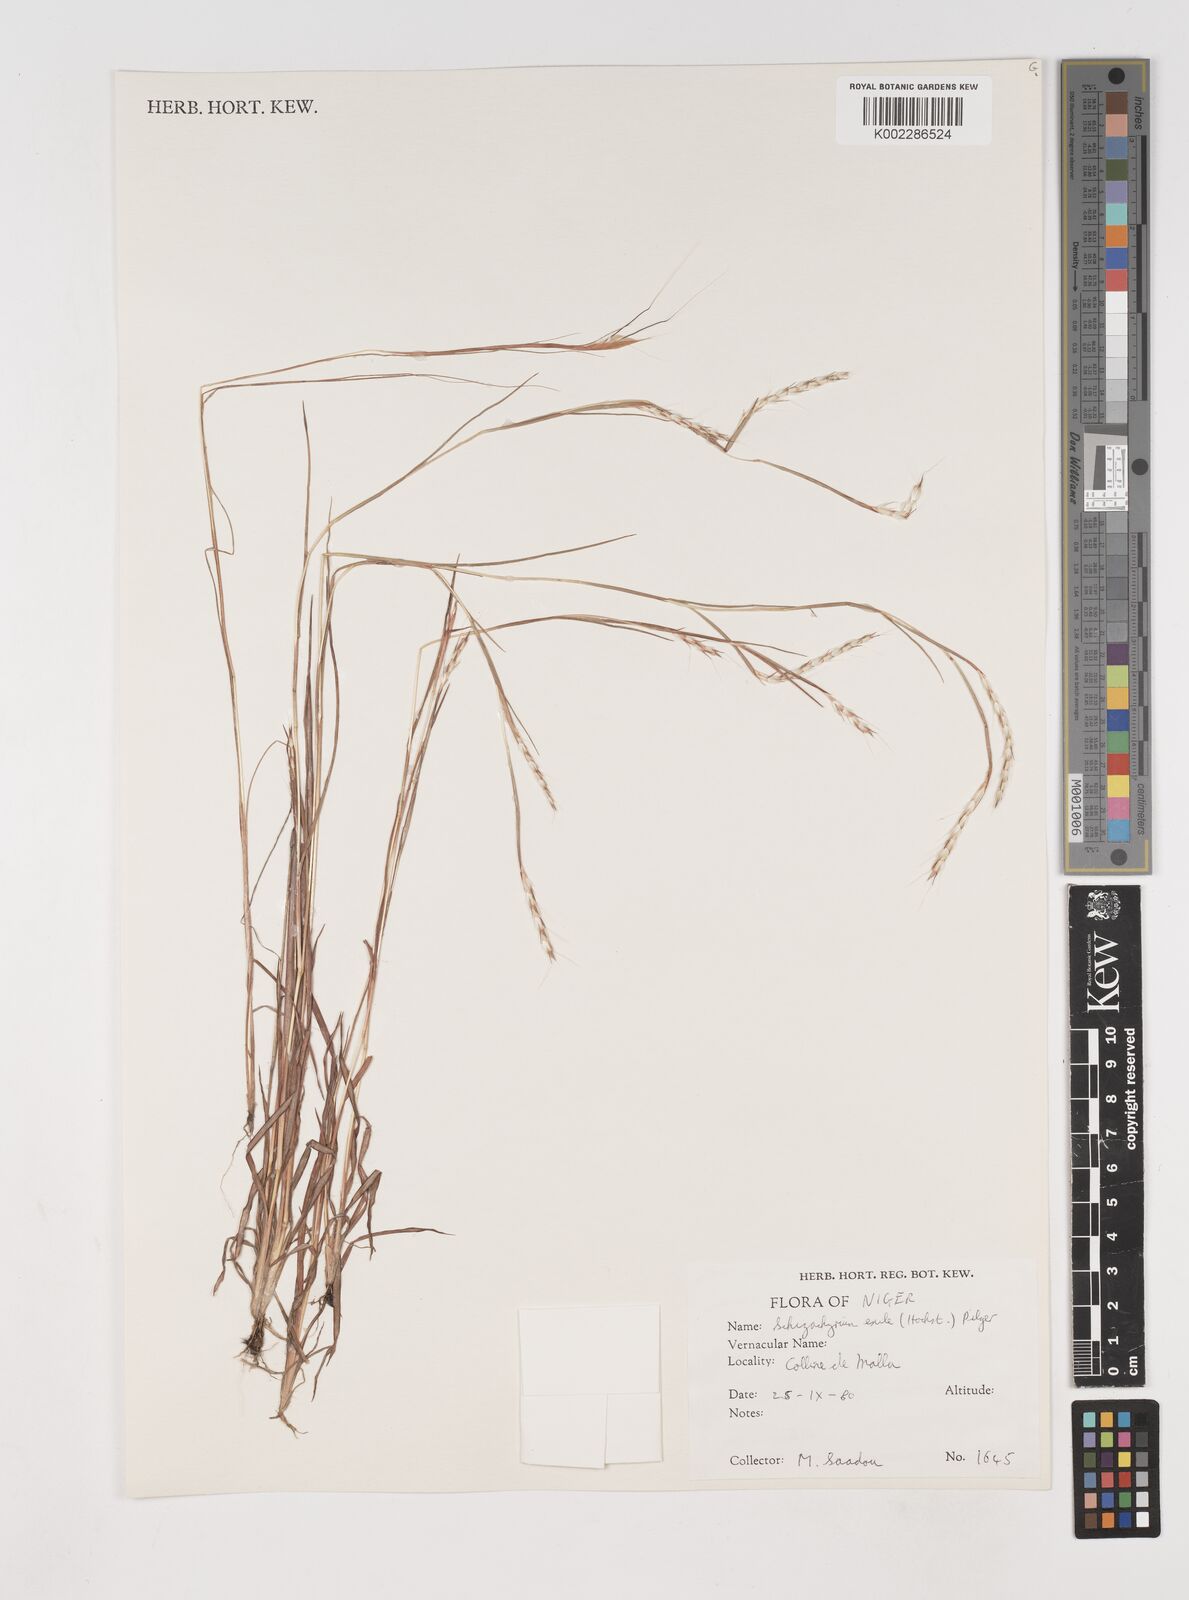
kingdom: Plantae
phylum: Tracheophyta
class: Liliopsida
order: Poales
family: Poaceae
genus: Schizachyrium
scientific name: Schizachyrium exile
